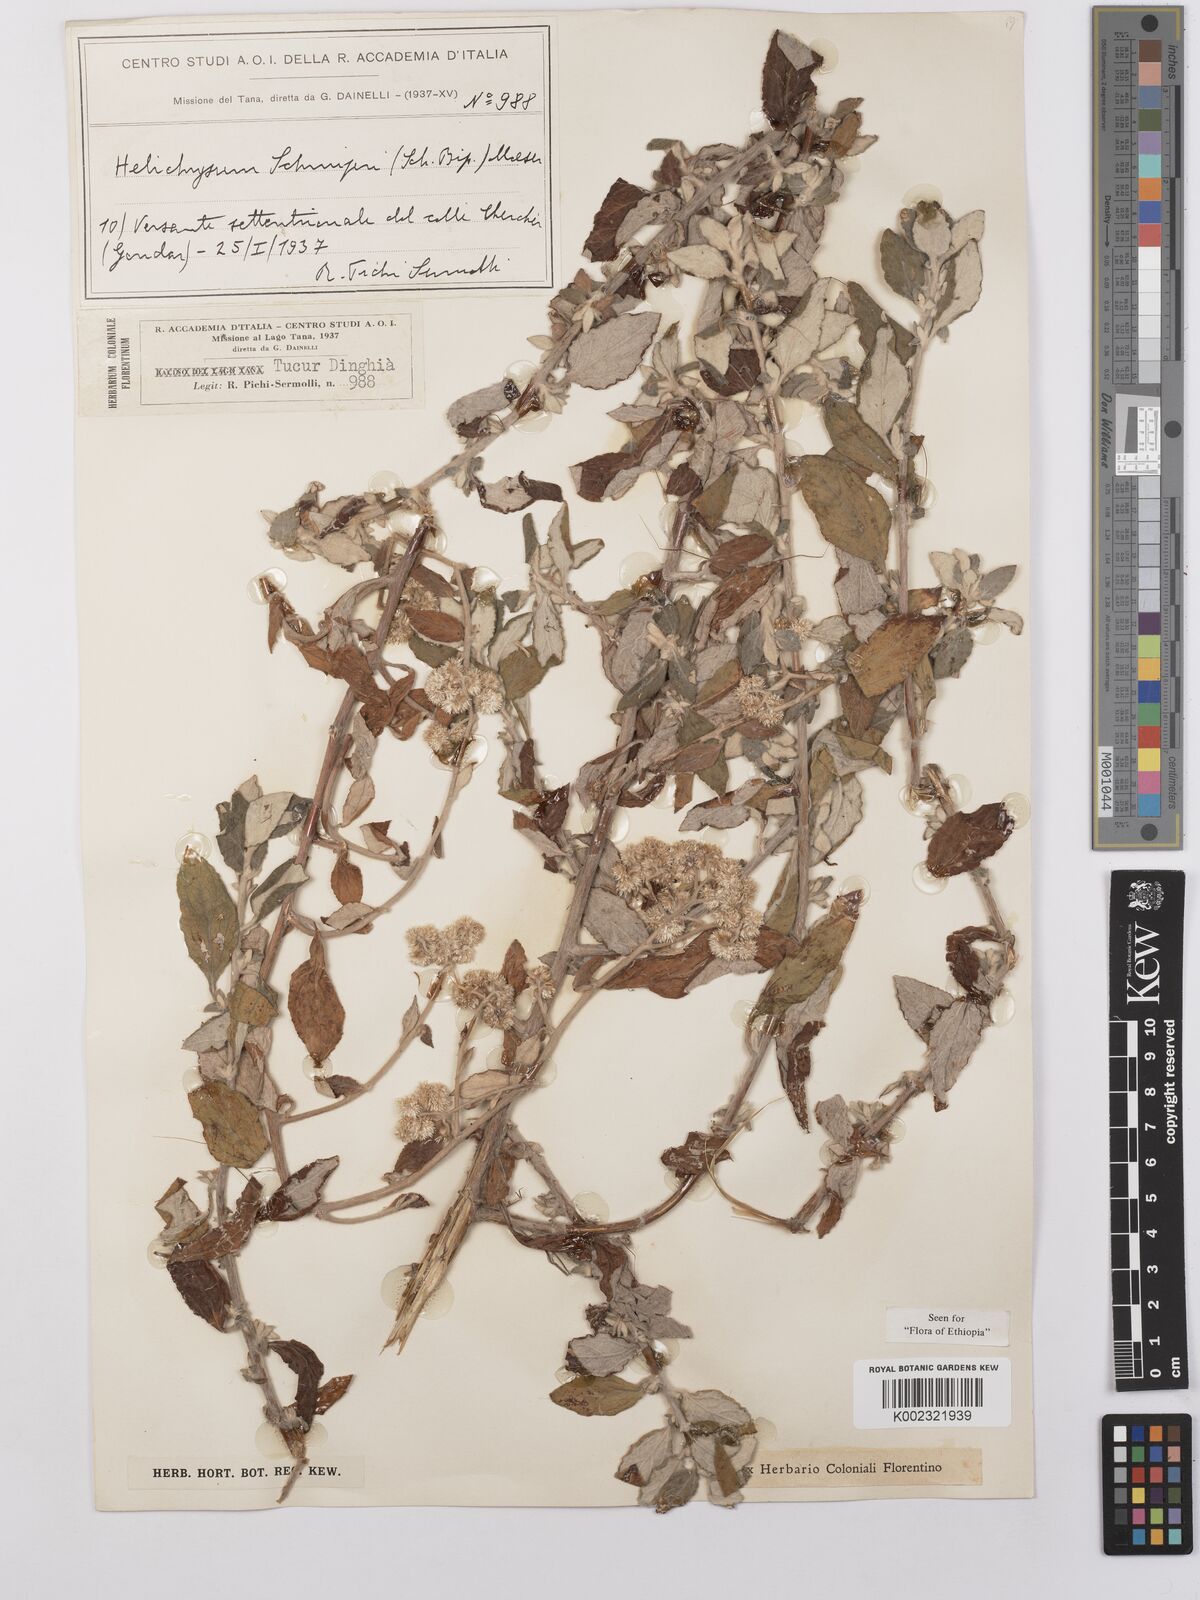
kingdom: Plantae
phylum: Tracheophyta
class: Magnoliopsida
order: Asterales
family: Asteraceae
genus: Helichrysum
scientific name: Helichrysum schimperi
